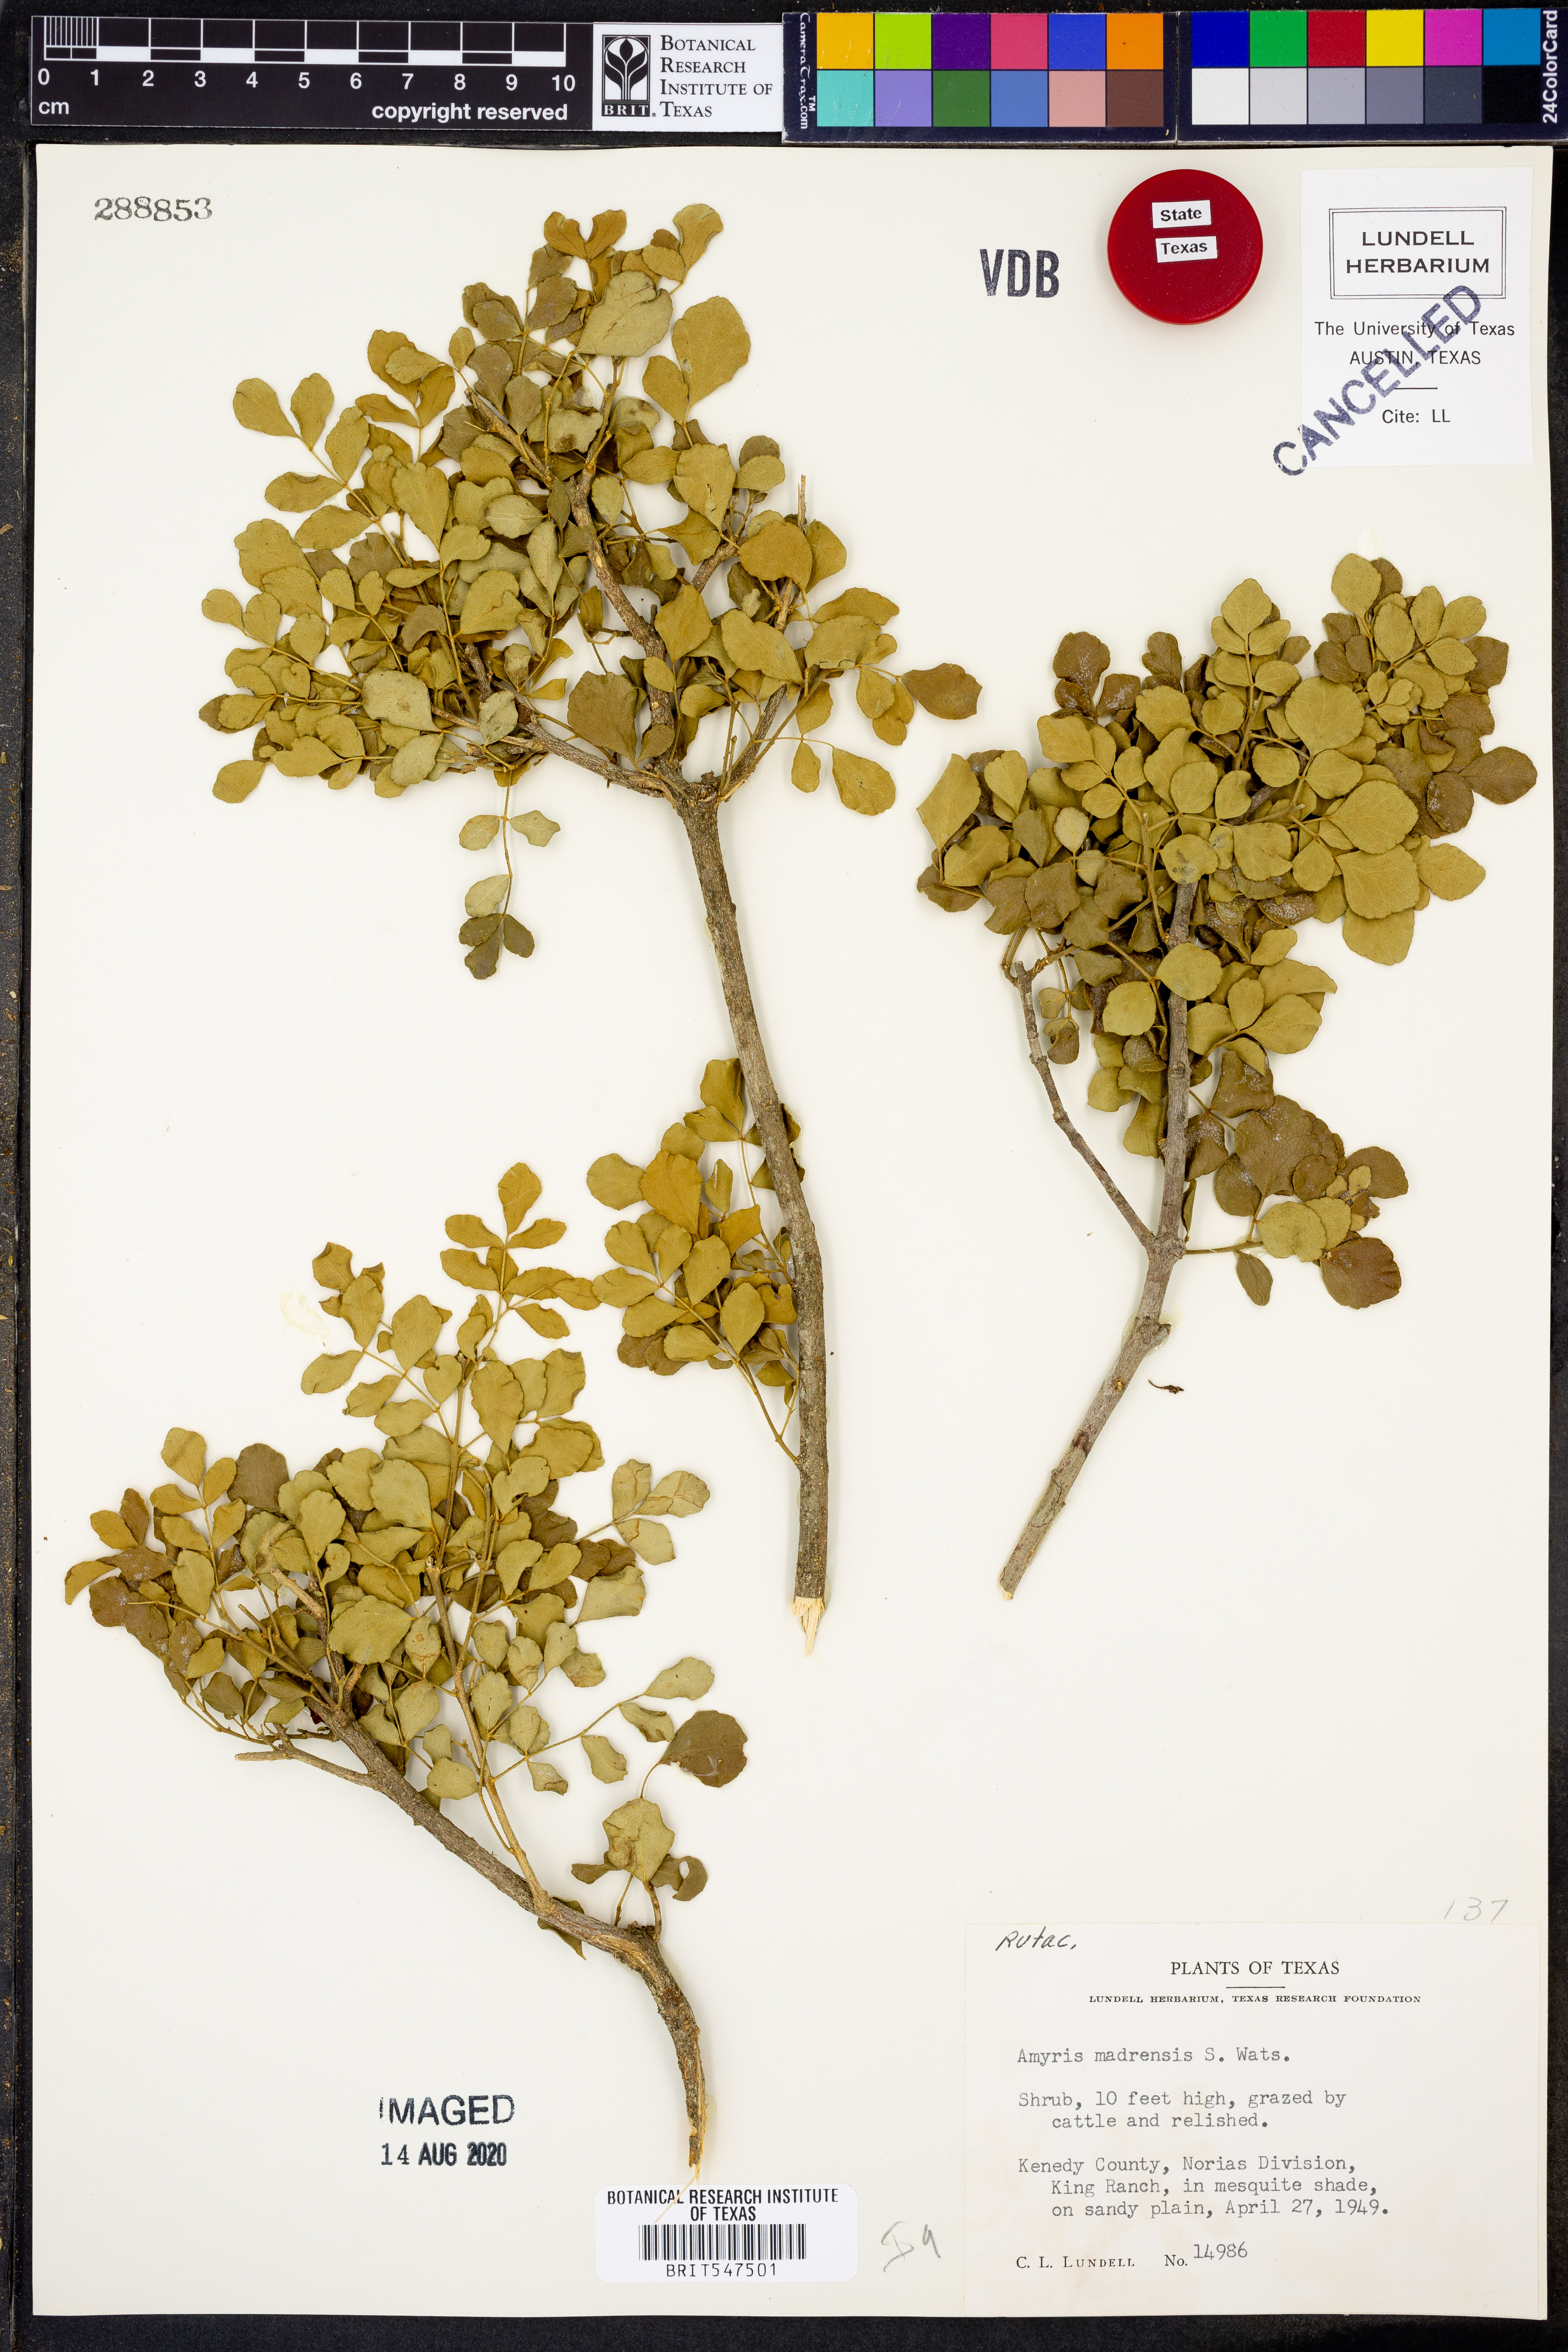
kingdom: Plantae
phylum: Tracheophyta
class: Magnoliopsida
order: Sapindales
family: Rutaceae
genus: Amyris
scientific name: Amyris madrensis
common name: Mountain torchwood
